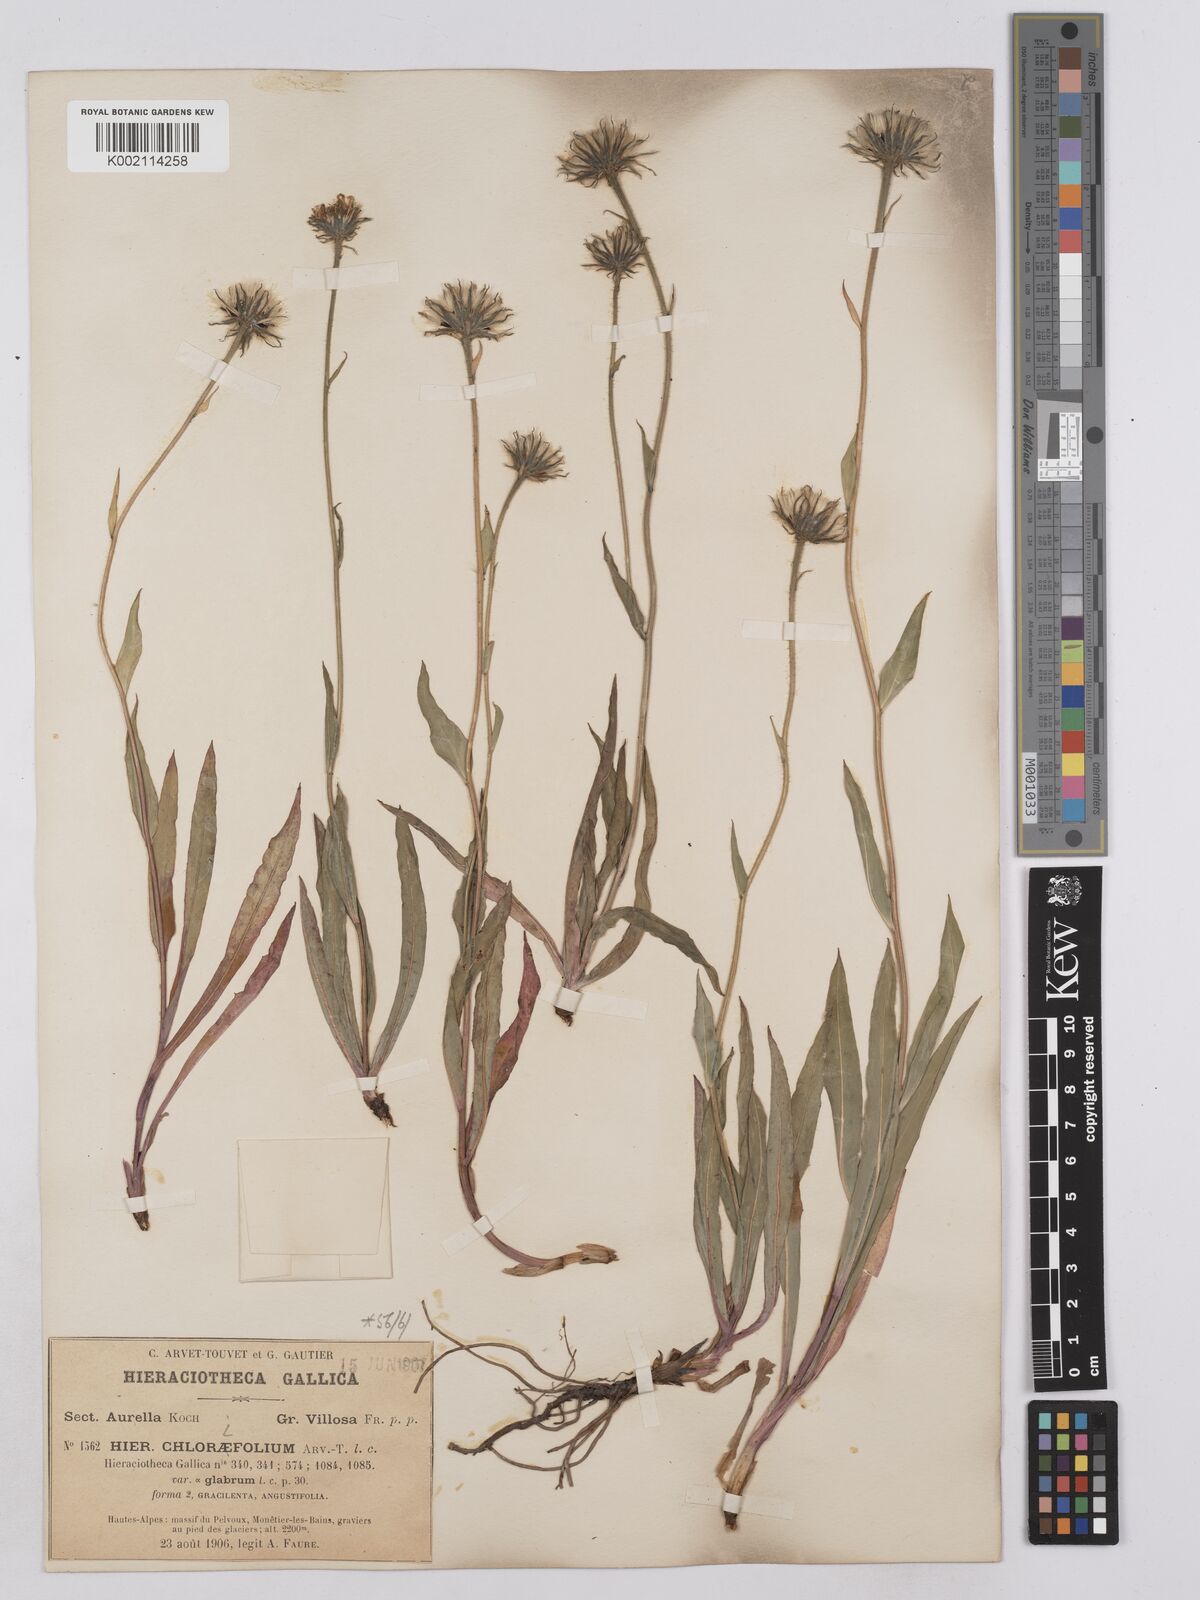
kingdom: Plantae
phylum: Tracheophyta
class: Magnoliopsida
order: Asterales
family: Asteraceae
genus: Hieracium
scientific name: Hieracium chlorifolium
